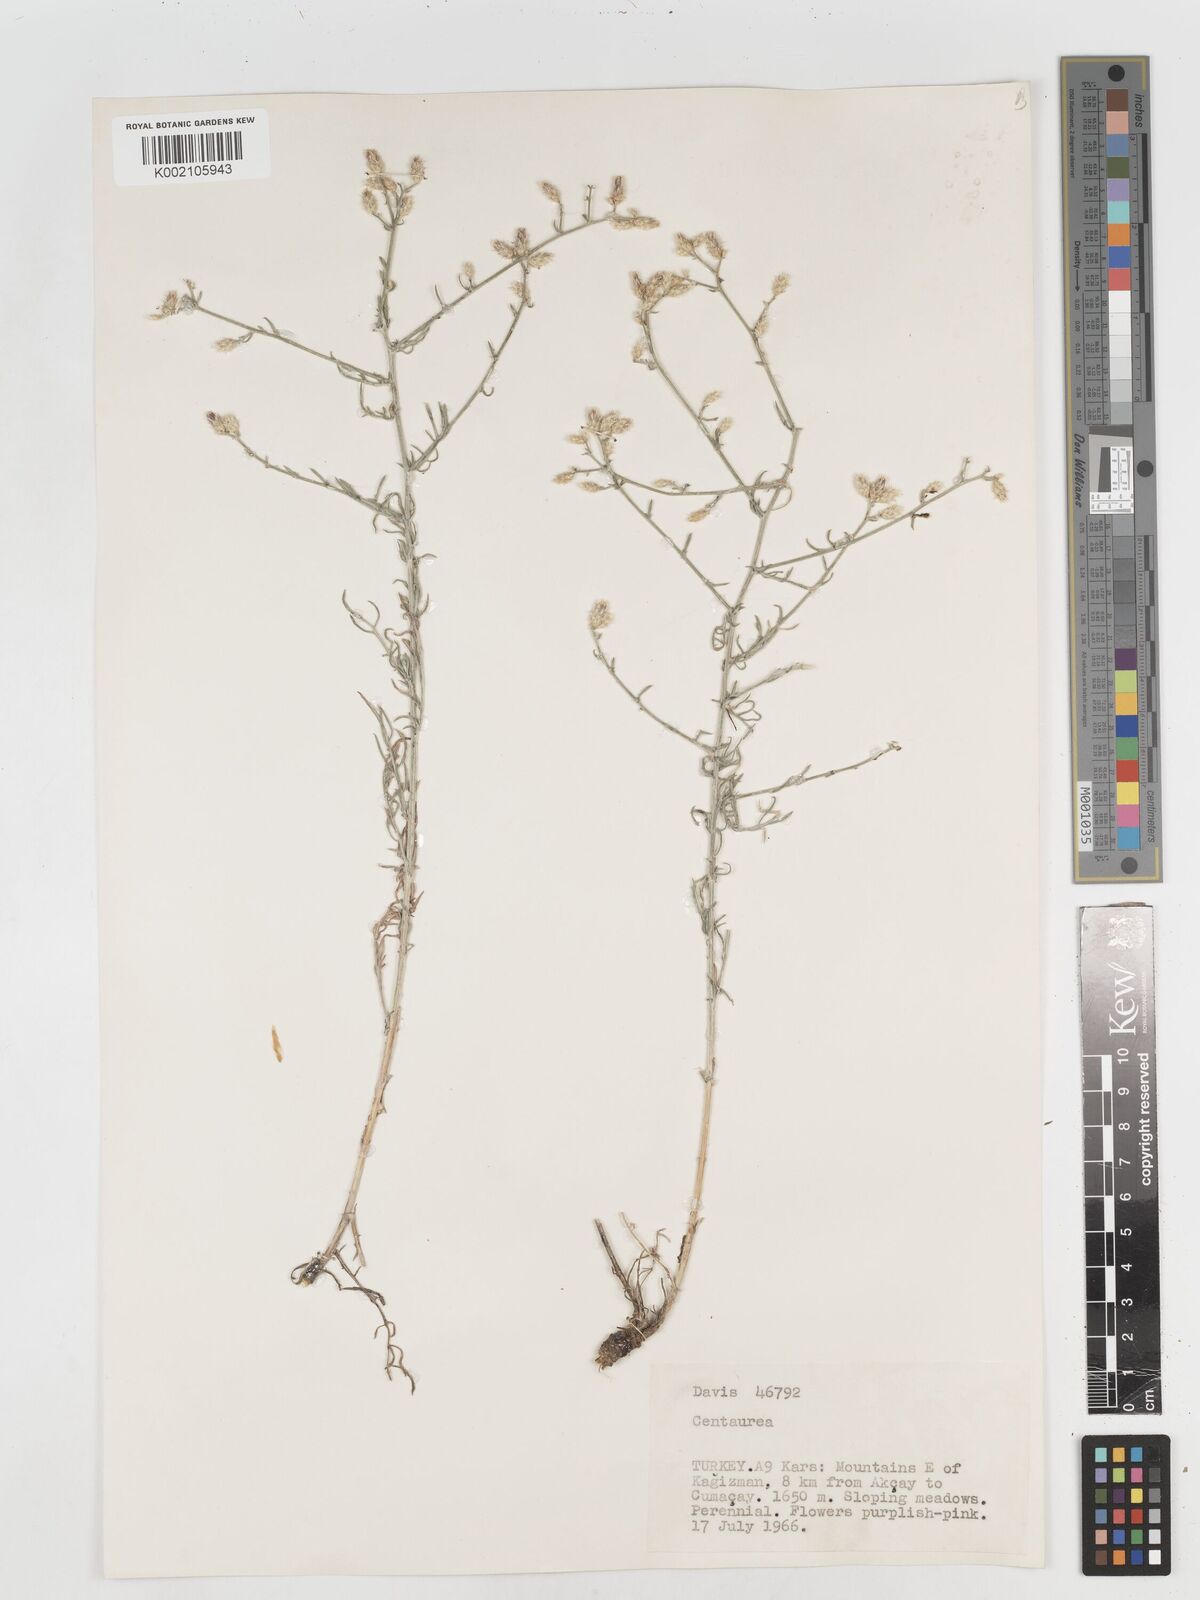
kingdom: Plantae
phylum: Tracheophyta
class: Magnoliopsida
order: Asterales
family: Asteraceae
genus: Centaurea
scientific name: Centaurea
